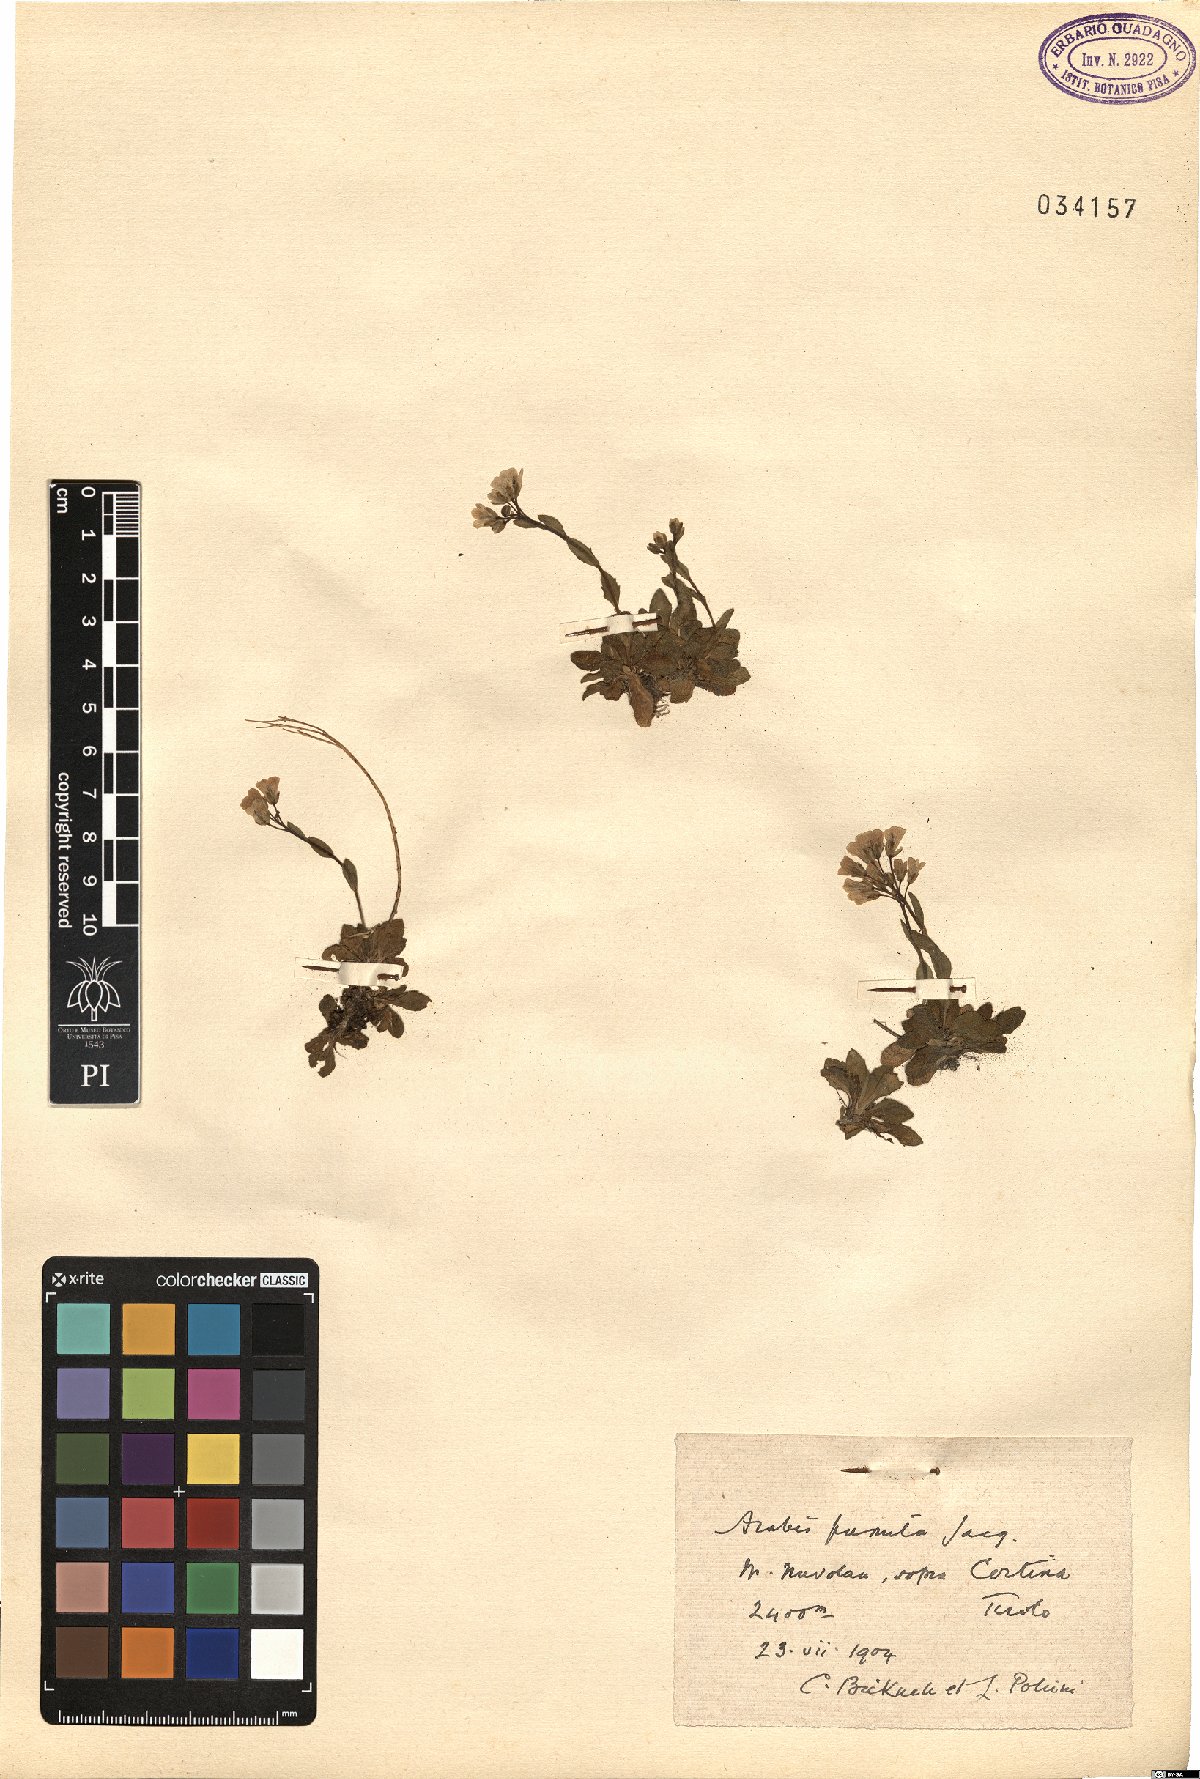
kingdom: Plantae
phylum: Tracheophyta
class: Magnoliopsida
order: Brassicales
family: Brassicaceae
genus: Arabis
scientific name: Arabis pumila
